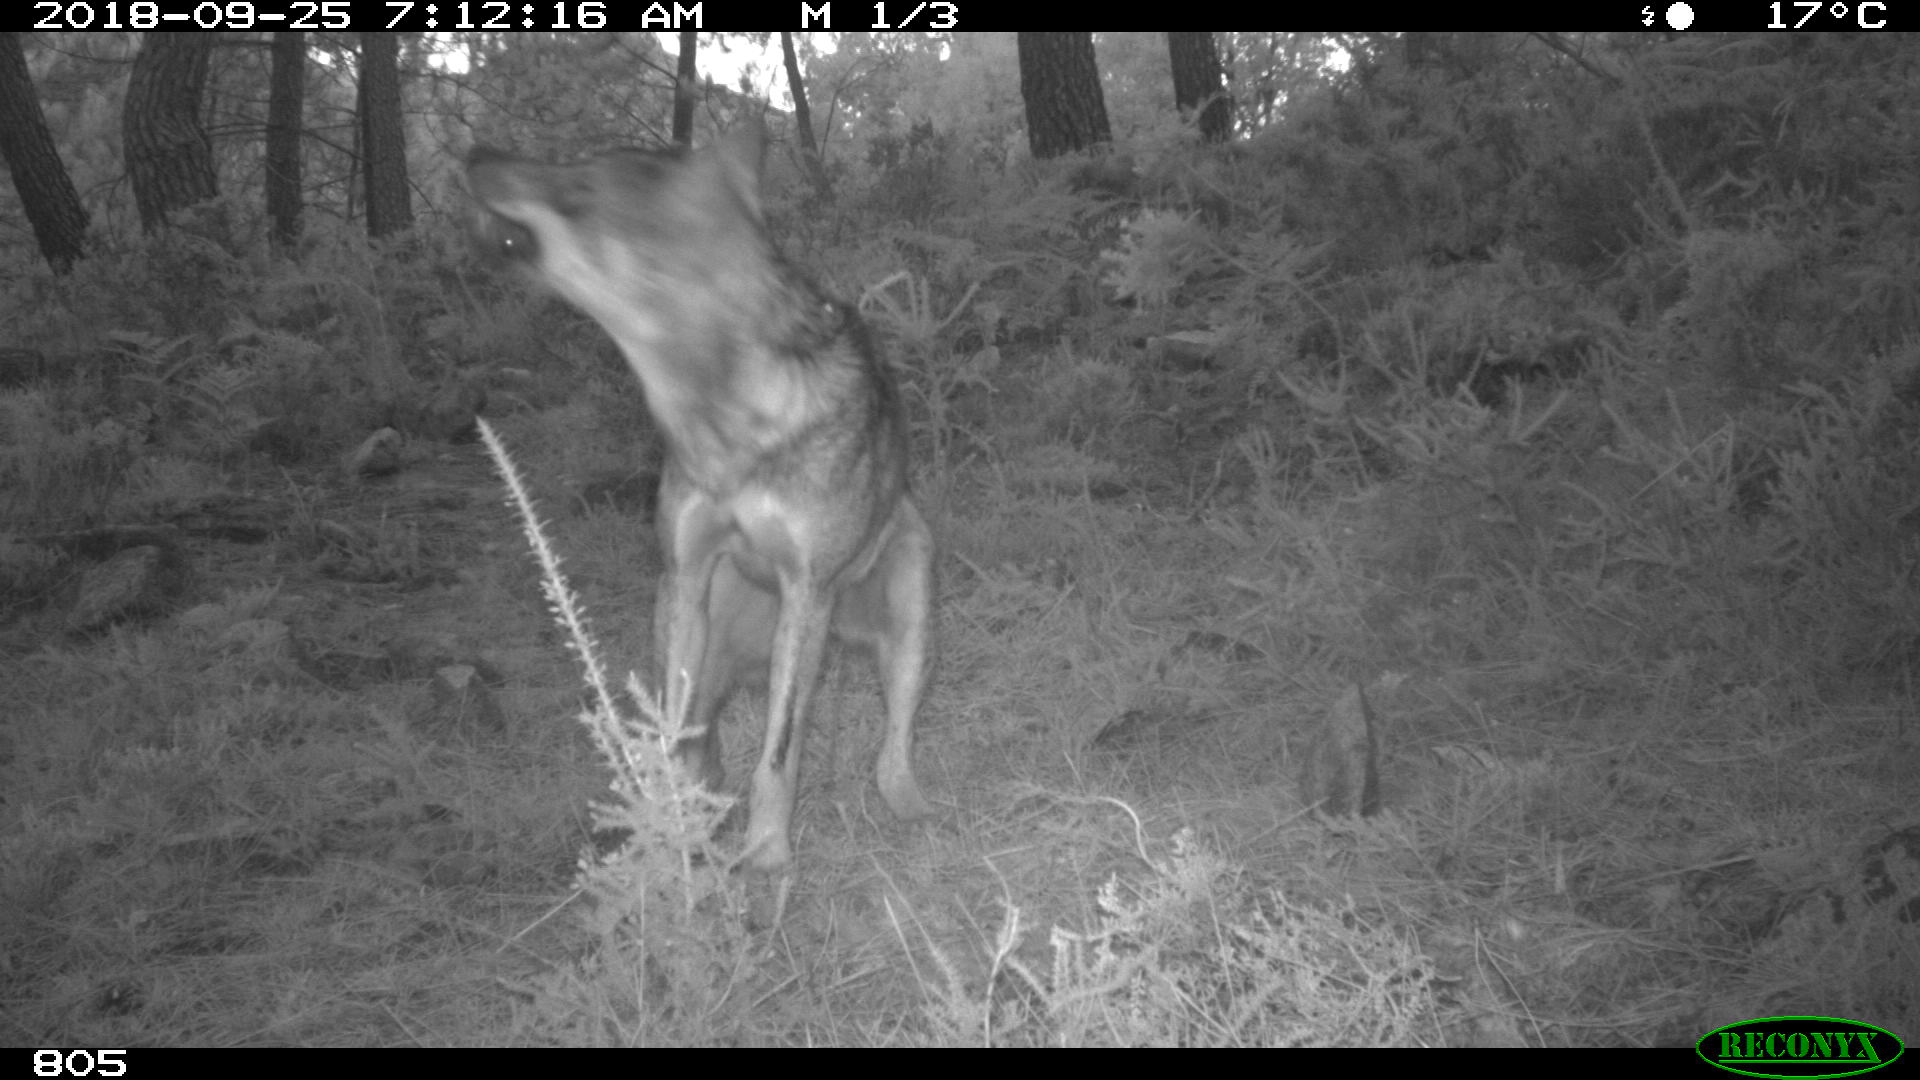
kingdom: Animalia
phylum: Chordata
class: Mammalia
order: Carnivora
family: Canidae
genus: Canis
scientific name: Canis lupus
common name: Gray wolf
